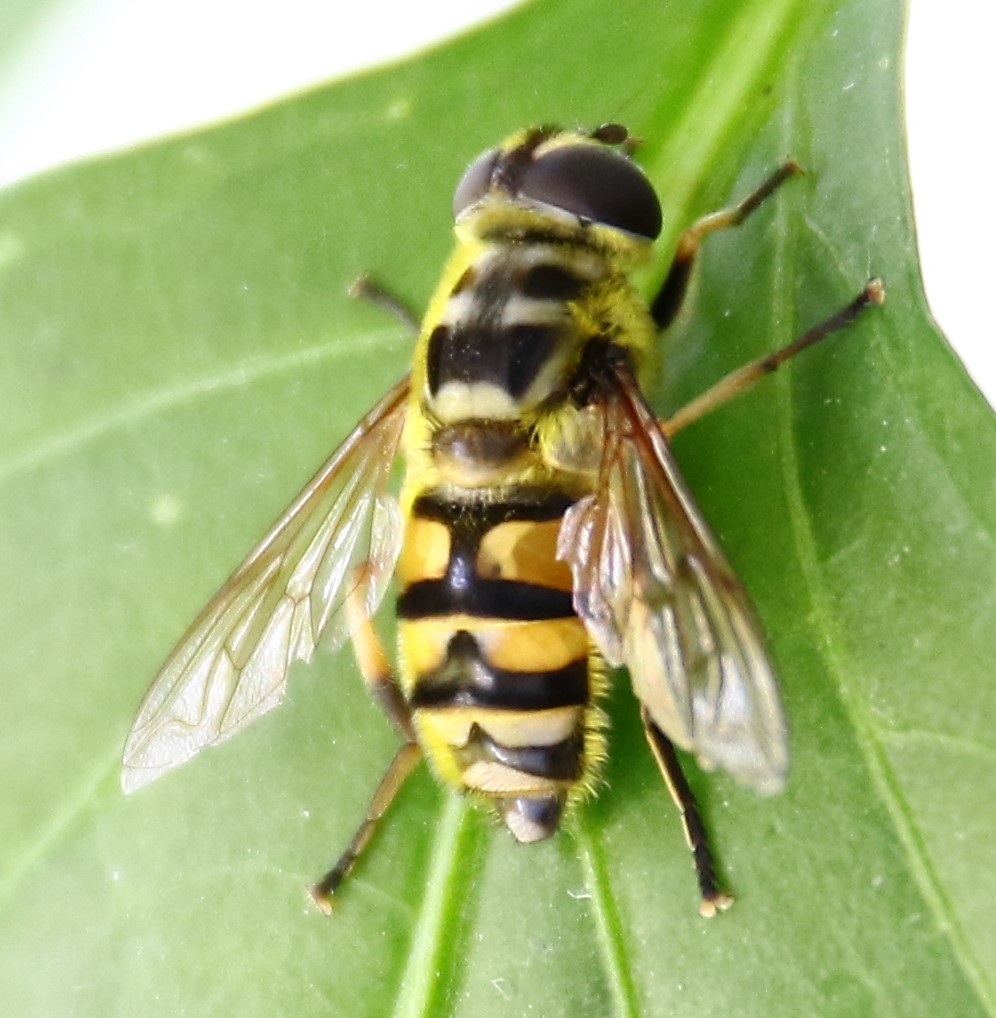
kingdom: Animalia
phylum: Arthropoda
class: Insecta
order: Diptera
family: Syrphidae
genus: Myathropa
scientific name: Myathropa florea
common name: Dødningehoved-svirreflue
